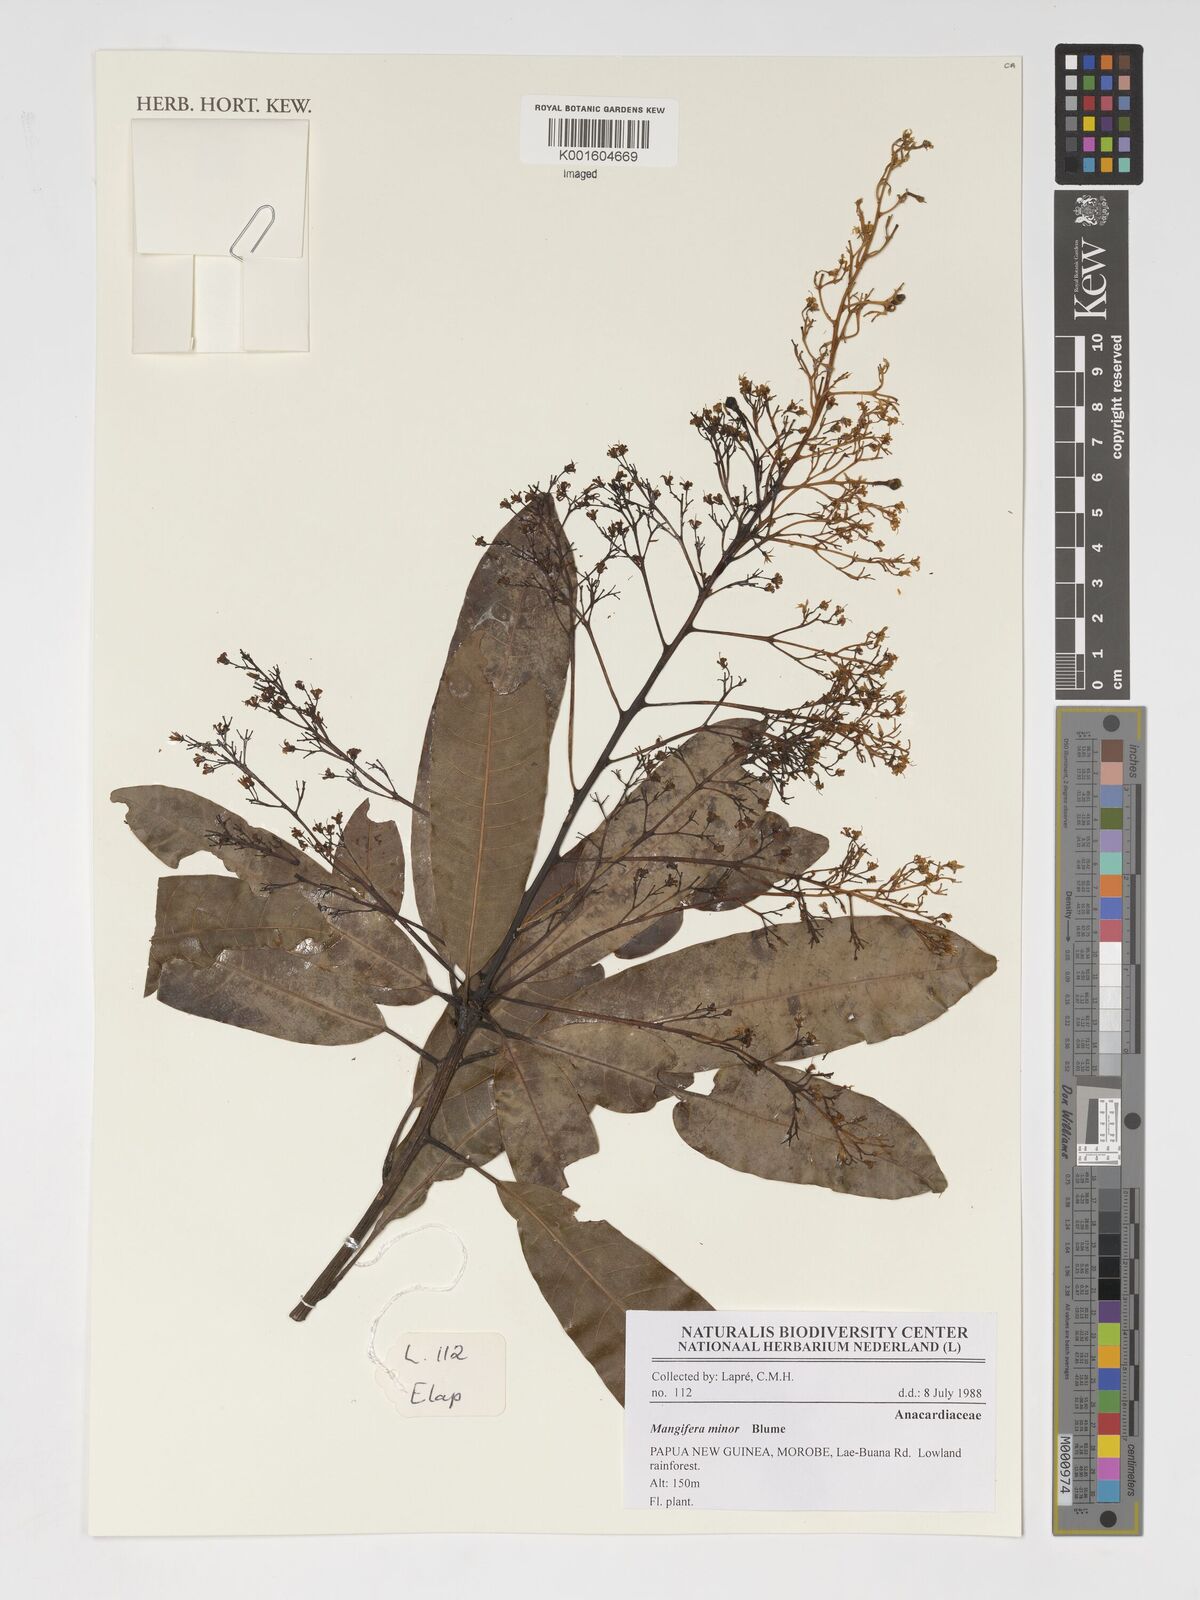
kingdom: Plantae
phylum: Tracheophyta
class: Magnoliopsida
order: Sapindales
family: Anacardiaceae
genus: Mangifera
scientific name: Mangifera minor
